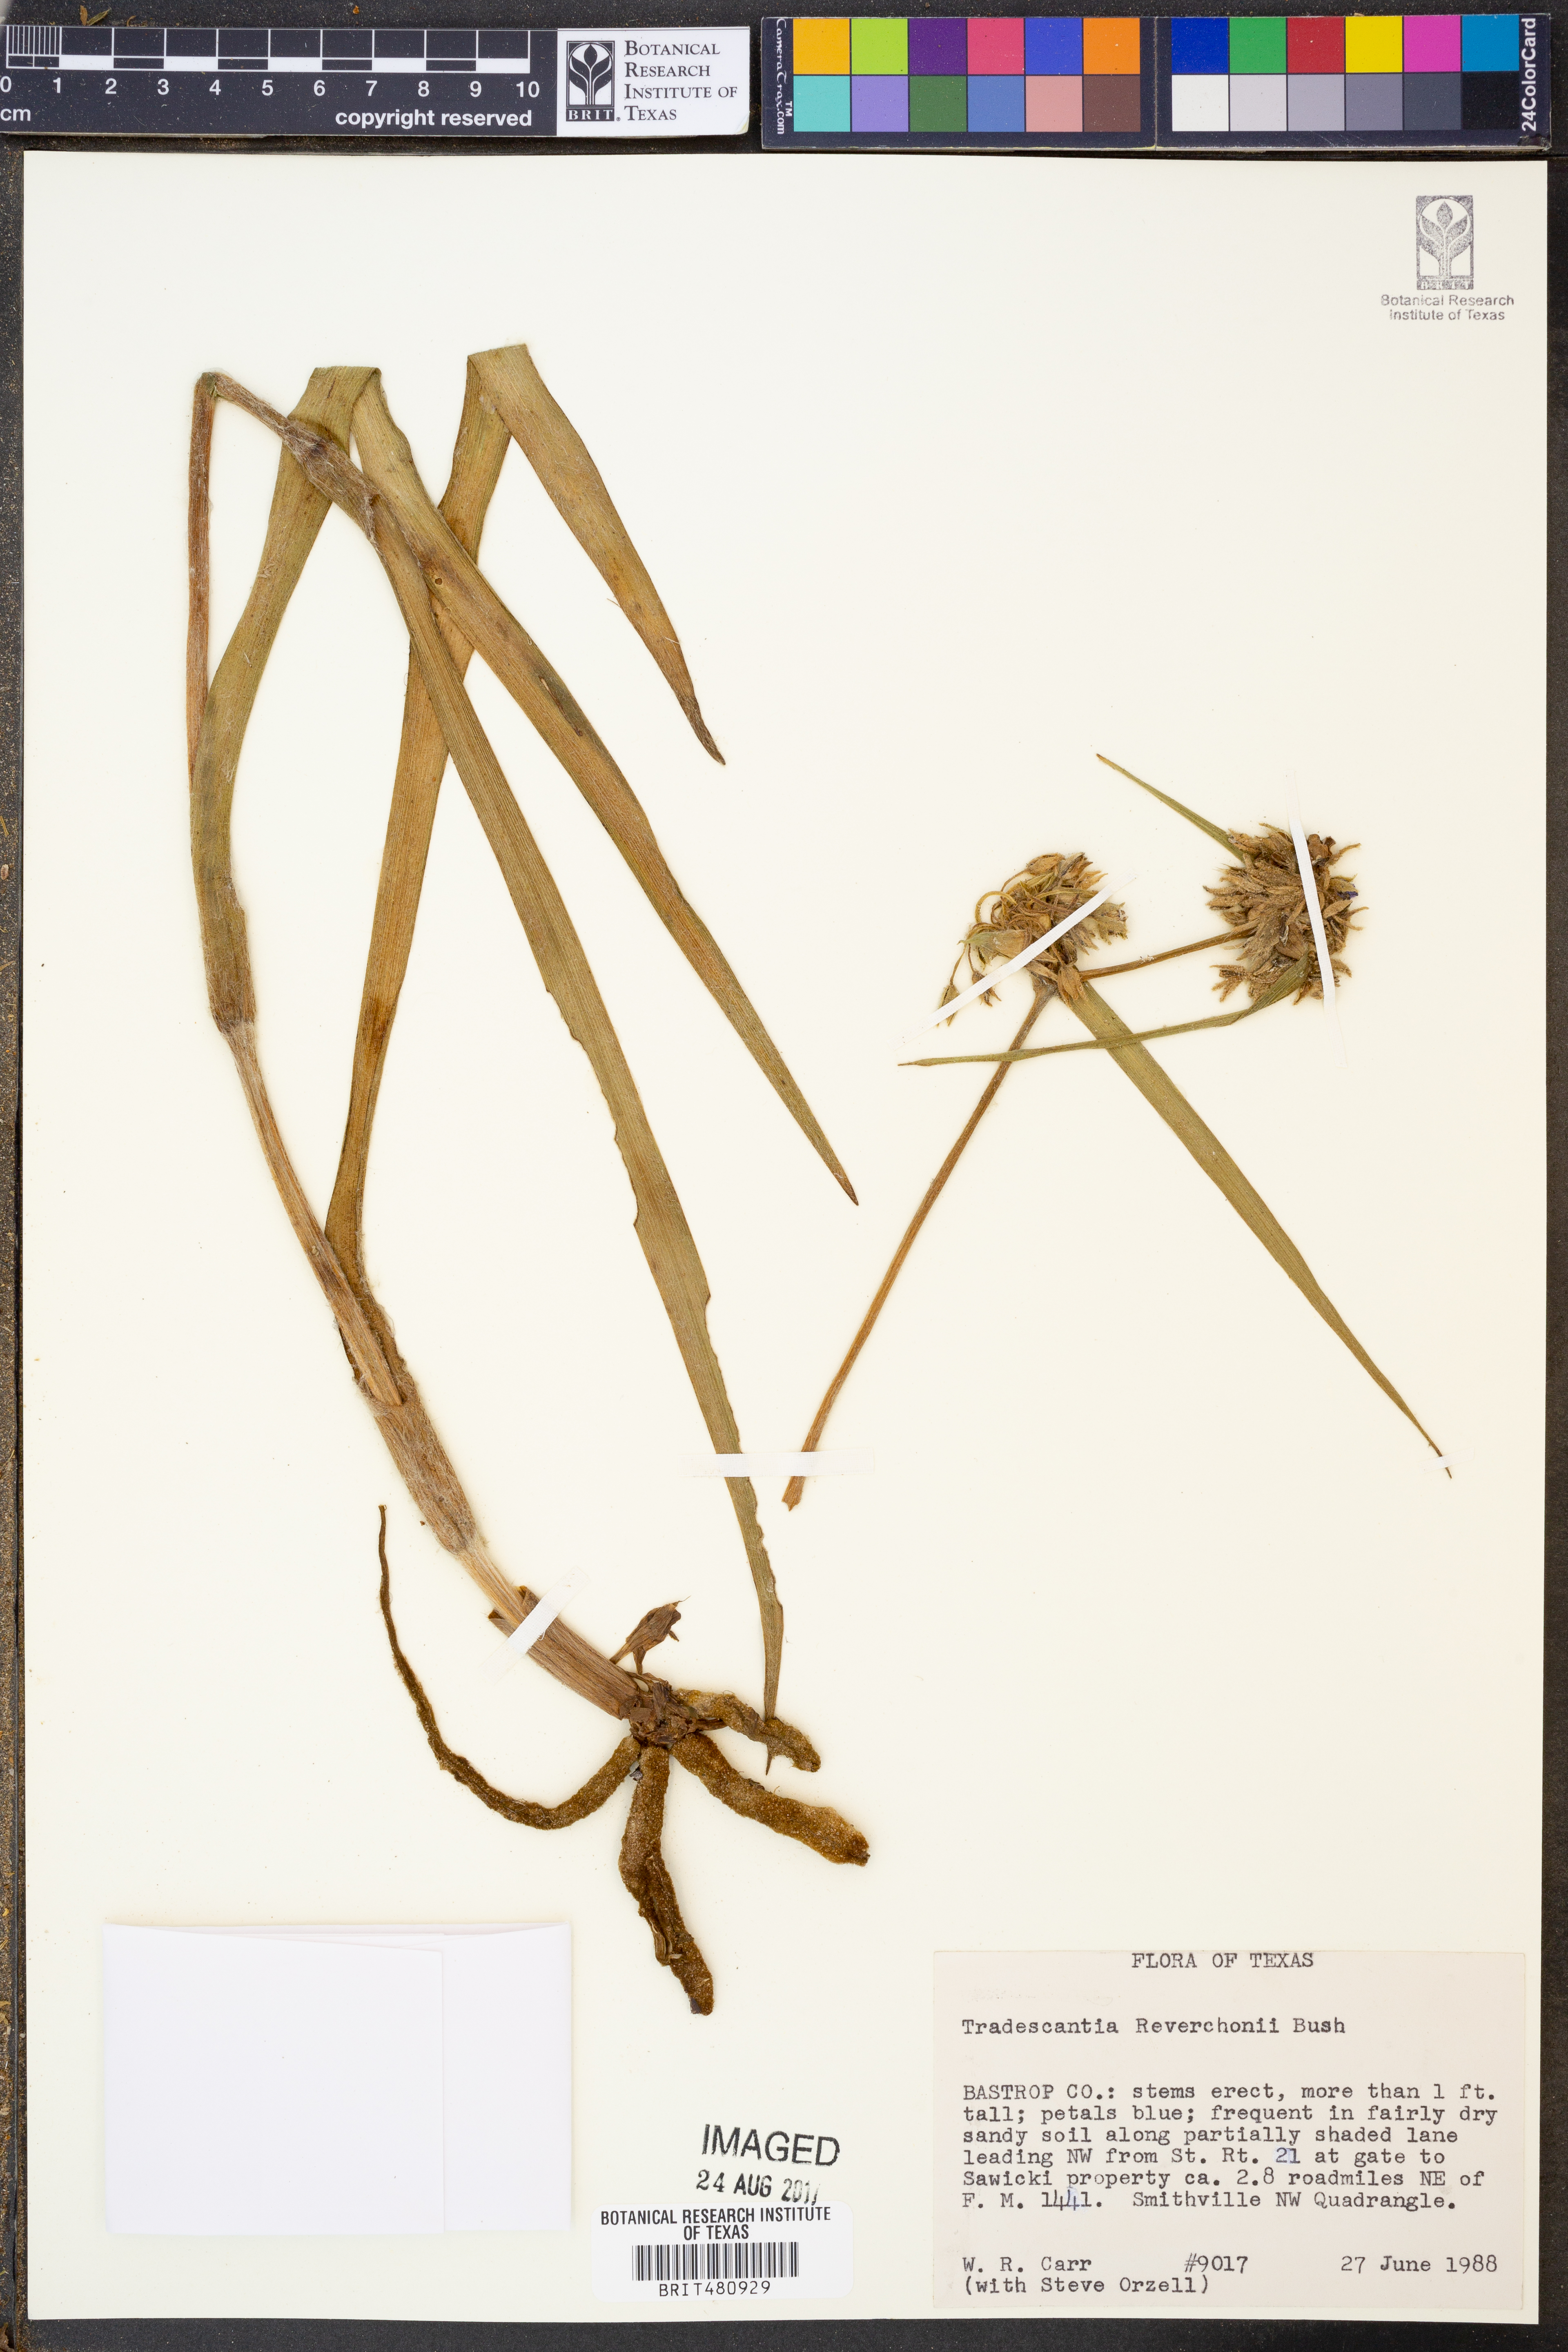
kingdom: Plantae
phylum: Tracheophyta
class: Liliopsida
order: Commelinales
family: Commelinaceae
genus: Tradescantia
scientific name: Tradescantia reverchonii
